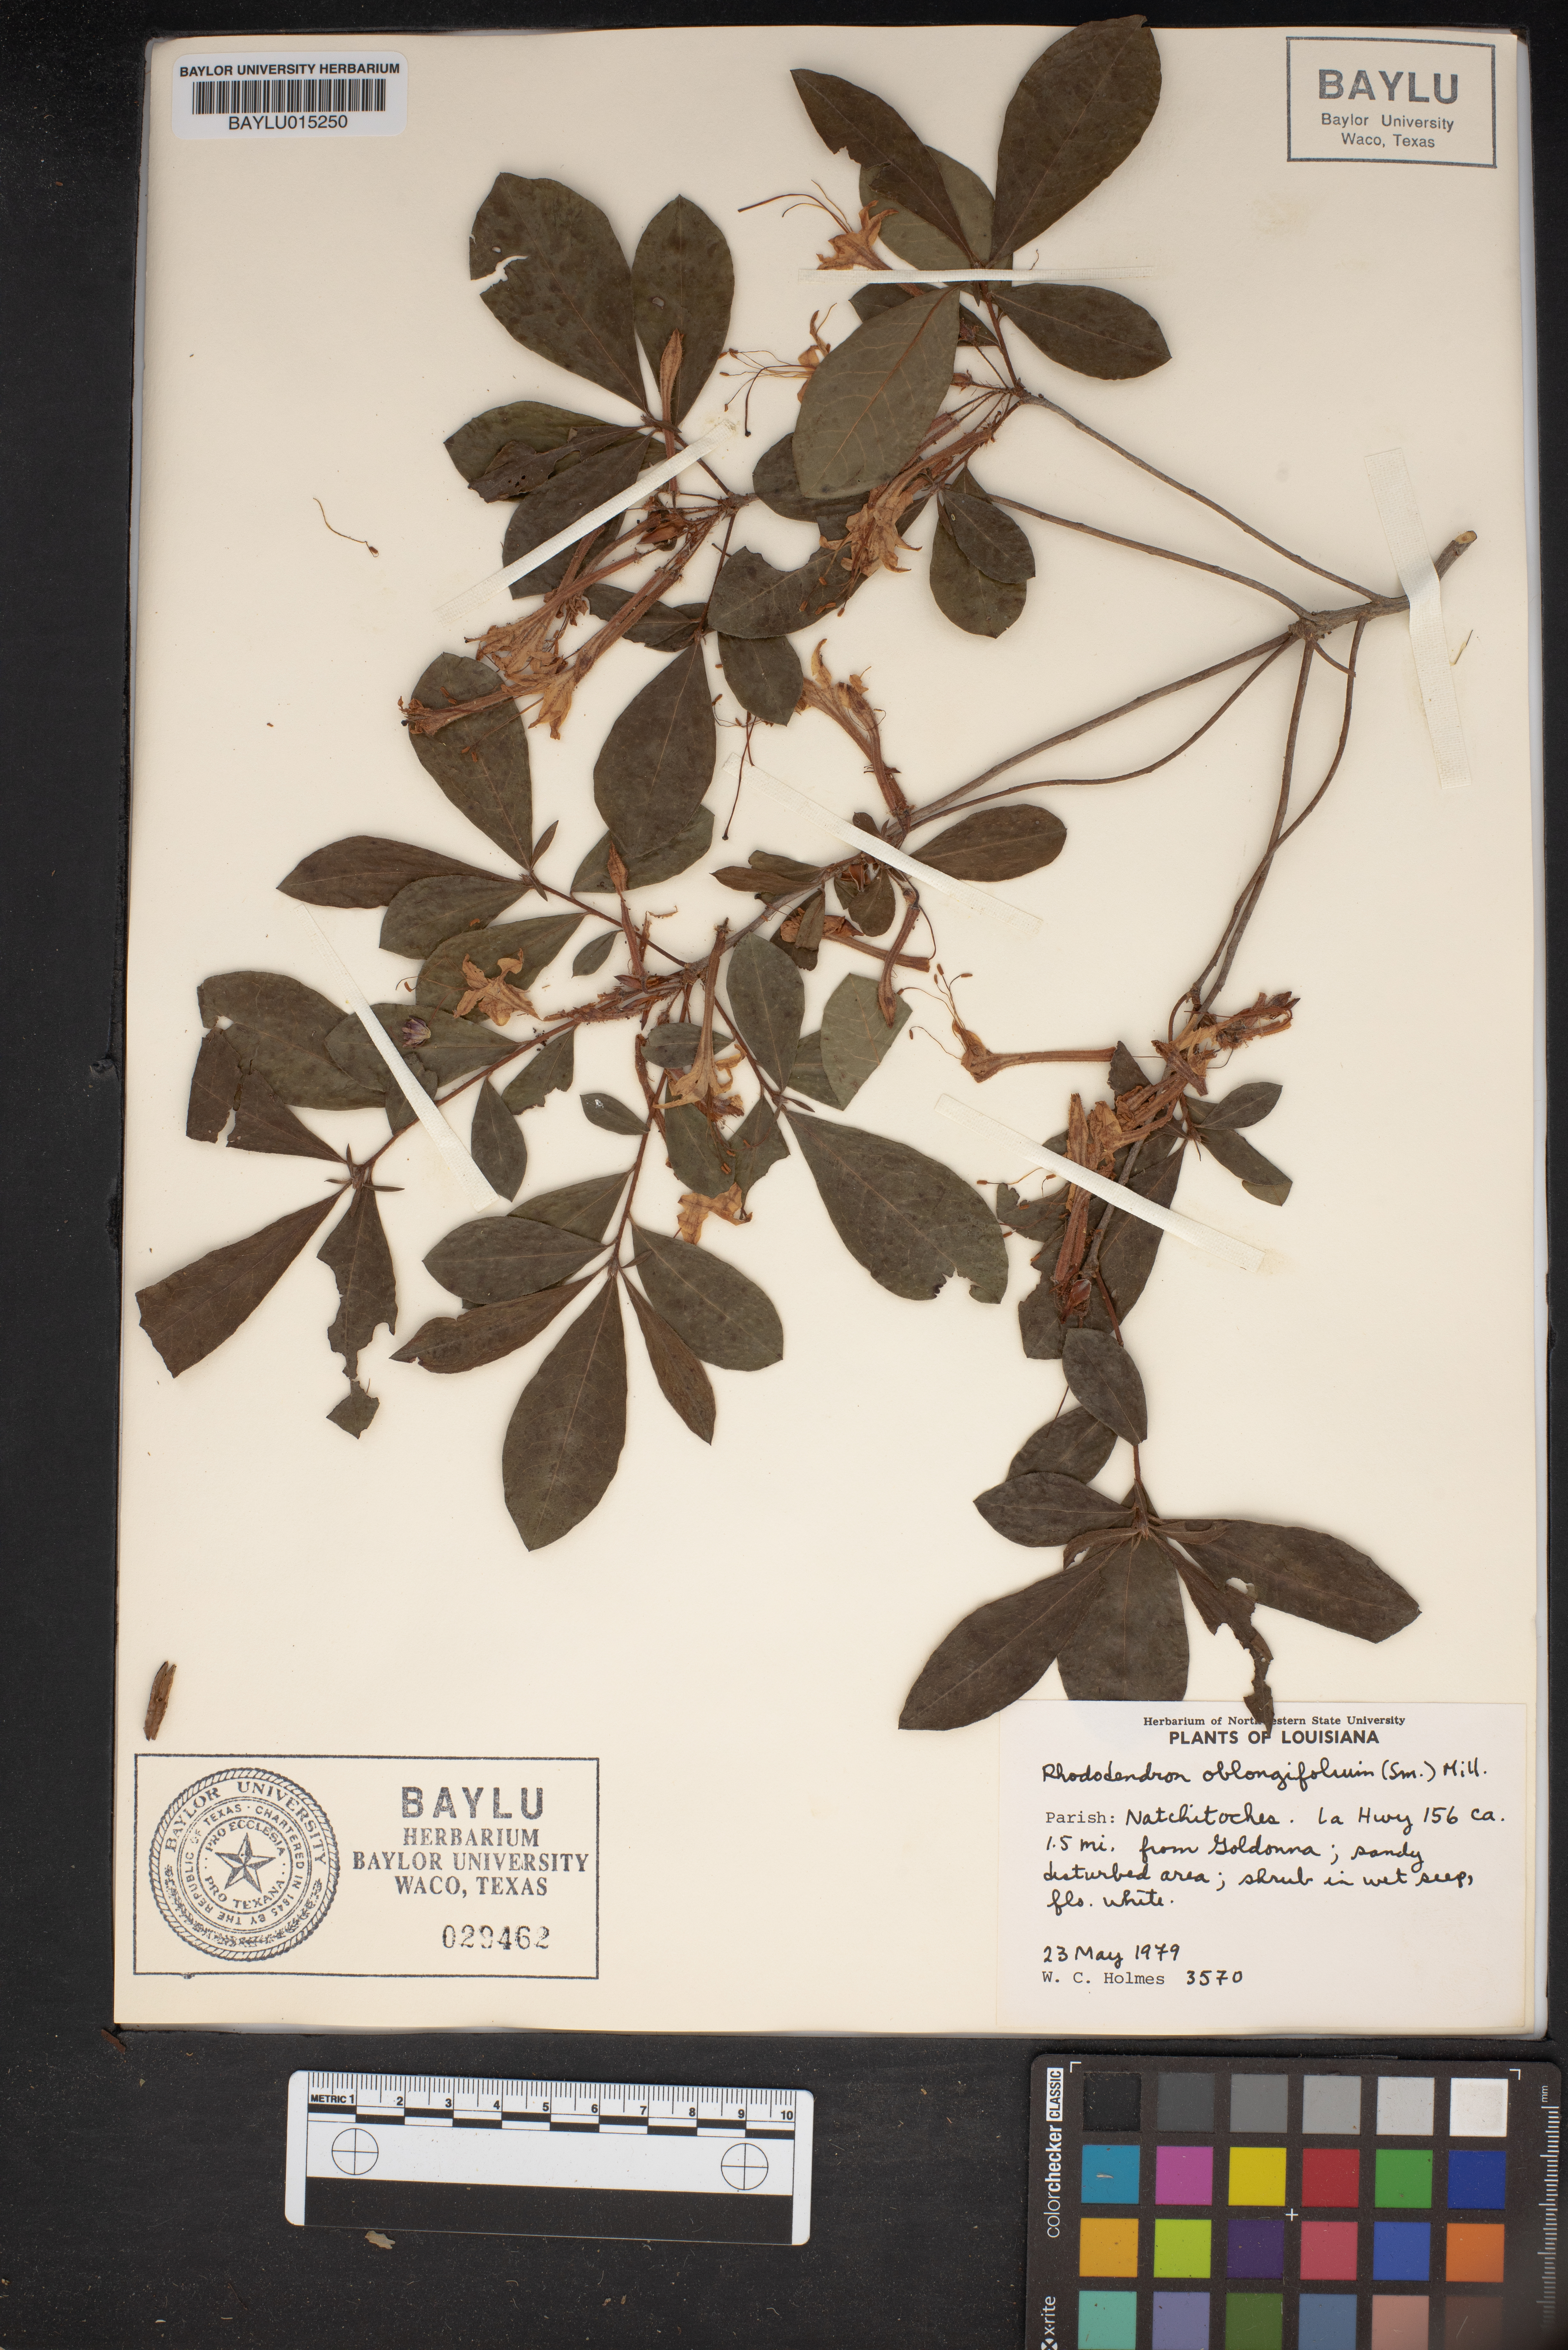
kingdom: Plantae
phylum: Tracheophyta
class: Magnoliopsida
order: Ericales
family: Ericaceae
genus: Rhododendron
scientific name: Rhododendron viscosum
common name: Clammy azalea
